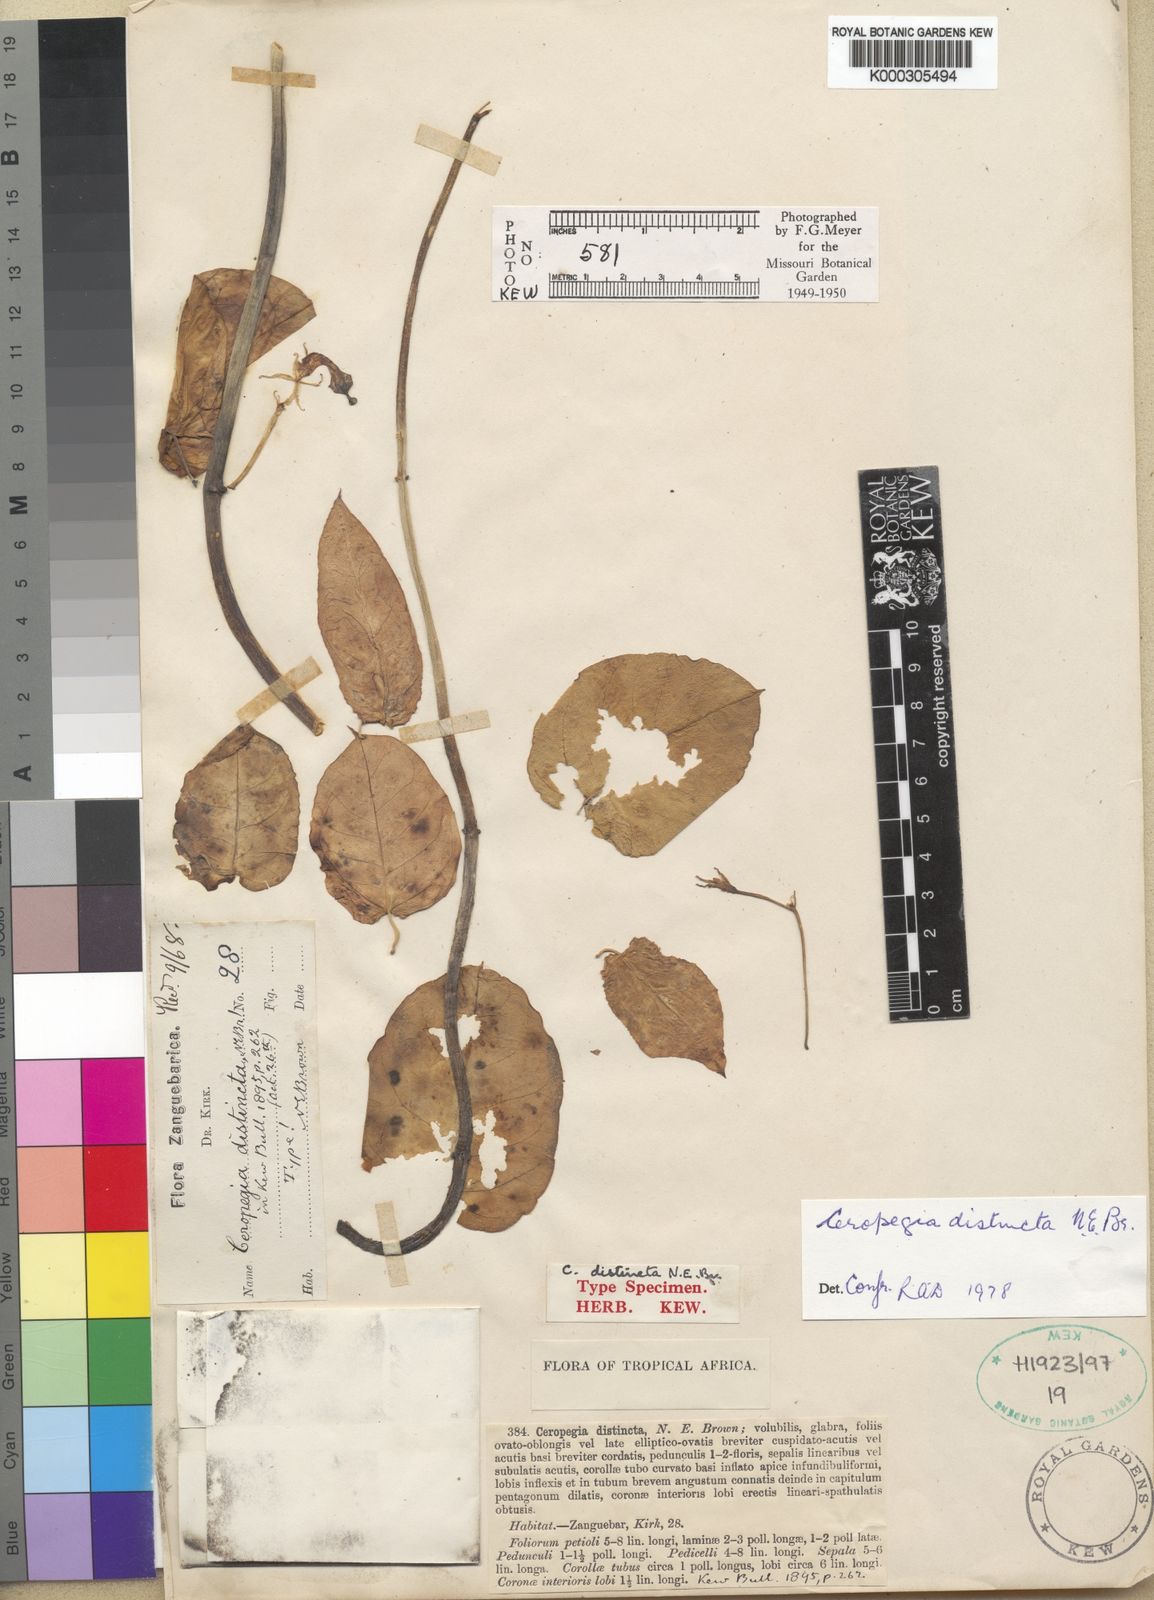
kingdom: Plantae
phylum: Tracheophyta
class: Magnoliopsida
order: Gentianales
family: Apocynaceae
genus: Ceropegia
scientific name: Ceropegia distincta
